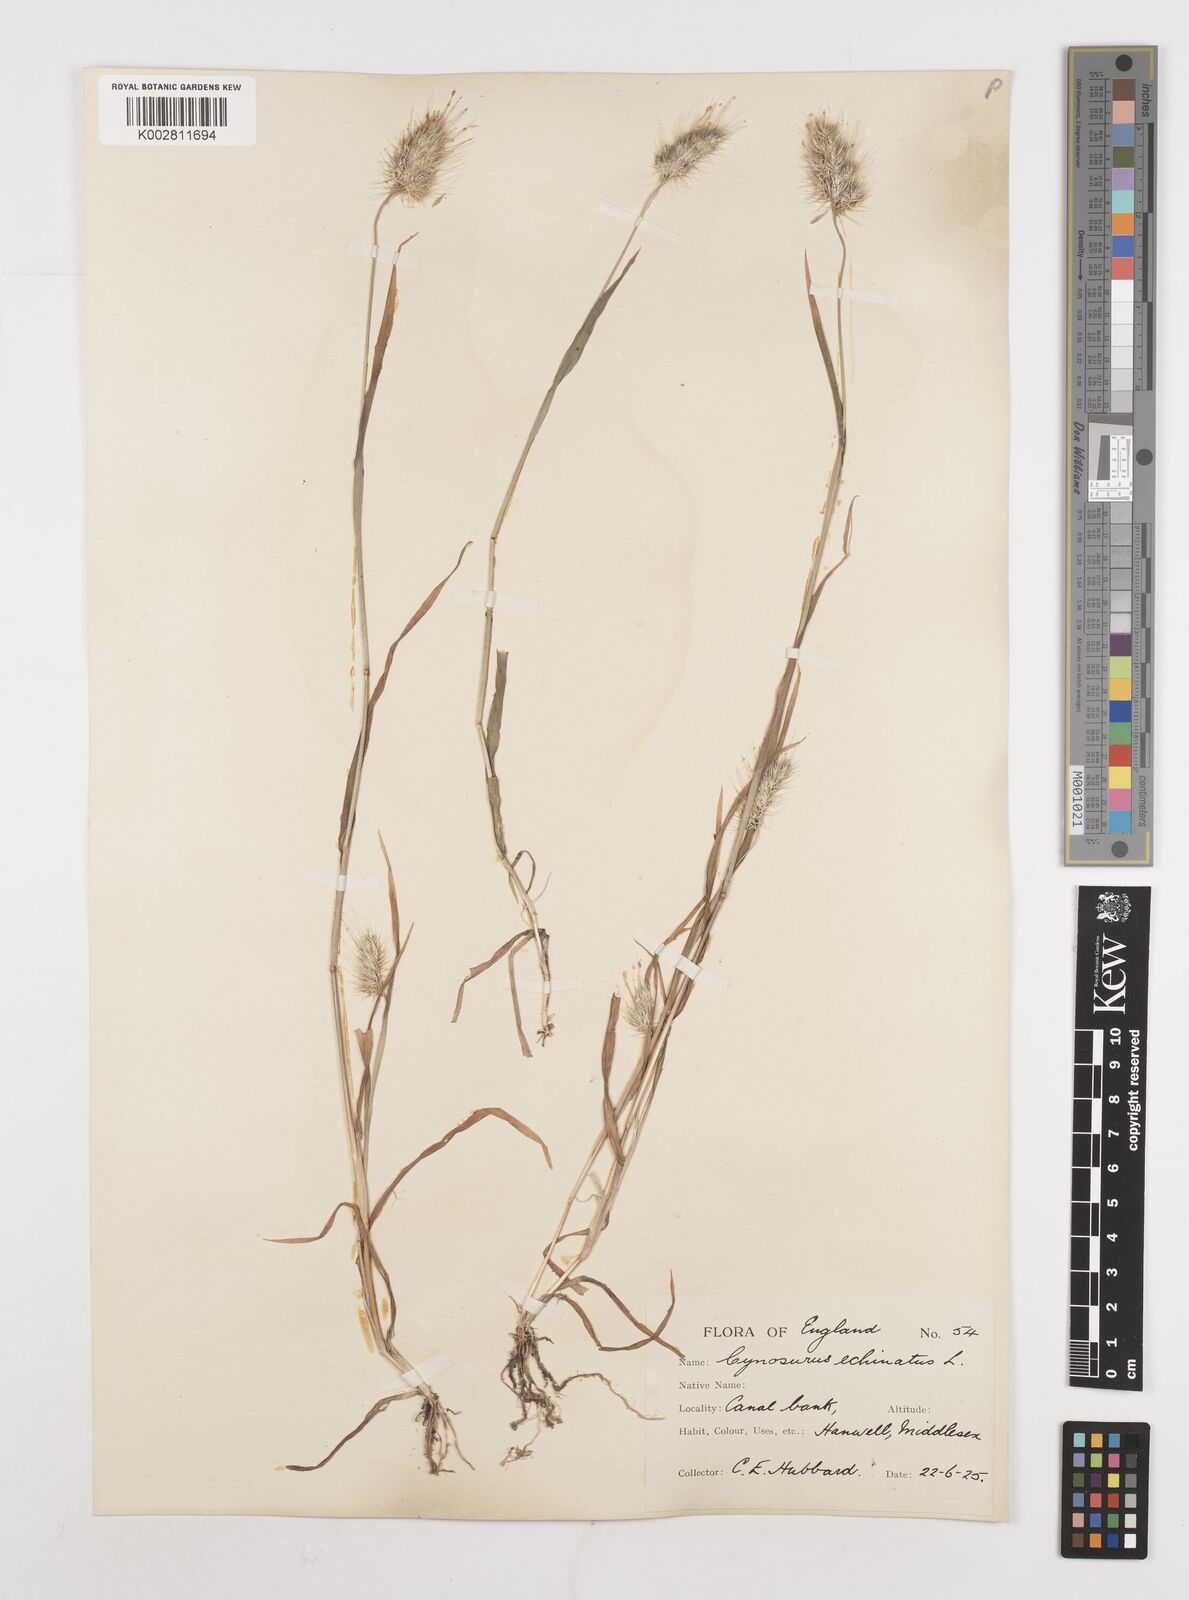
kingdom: Plantae
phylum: Tracheophyta
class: Liliopsida
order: Poales
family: Poaceae
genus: Cynosurus
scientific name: Cynosurus echinatus
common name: Rough dog's-tail
